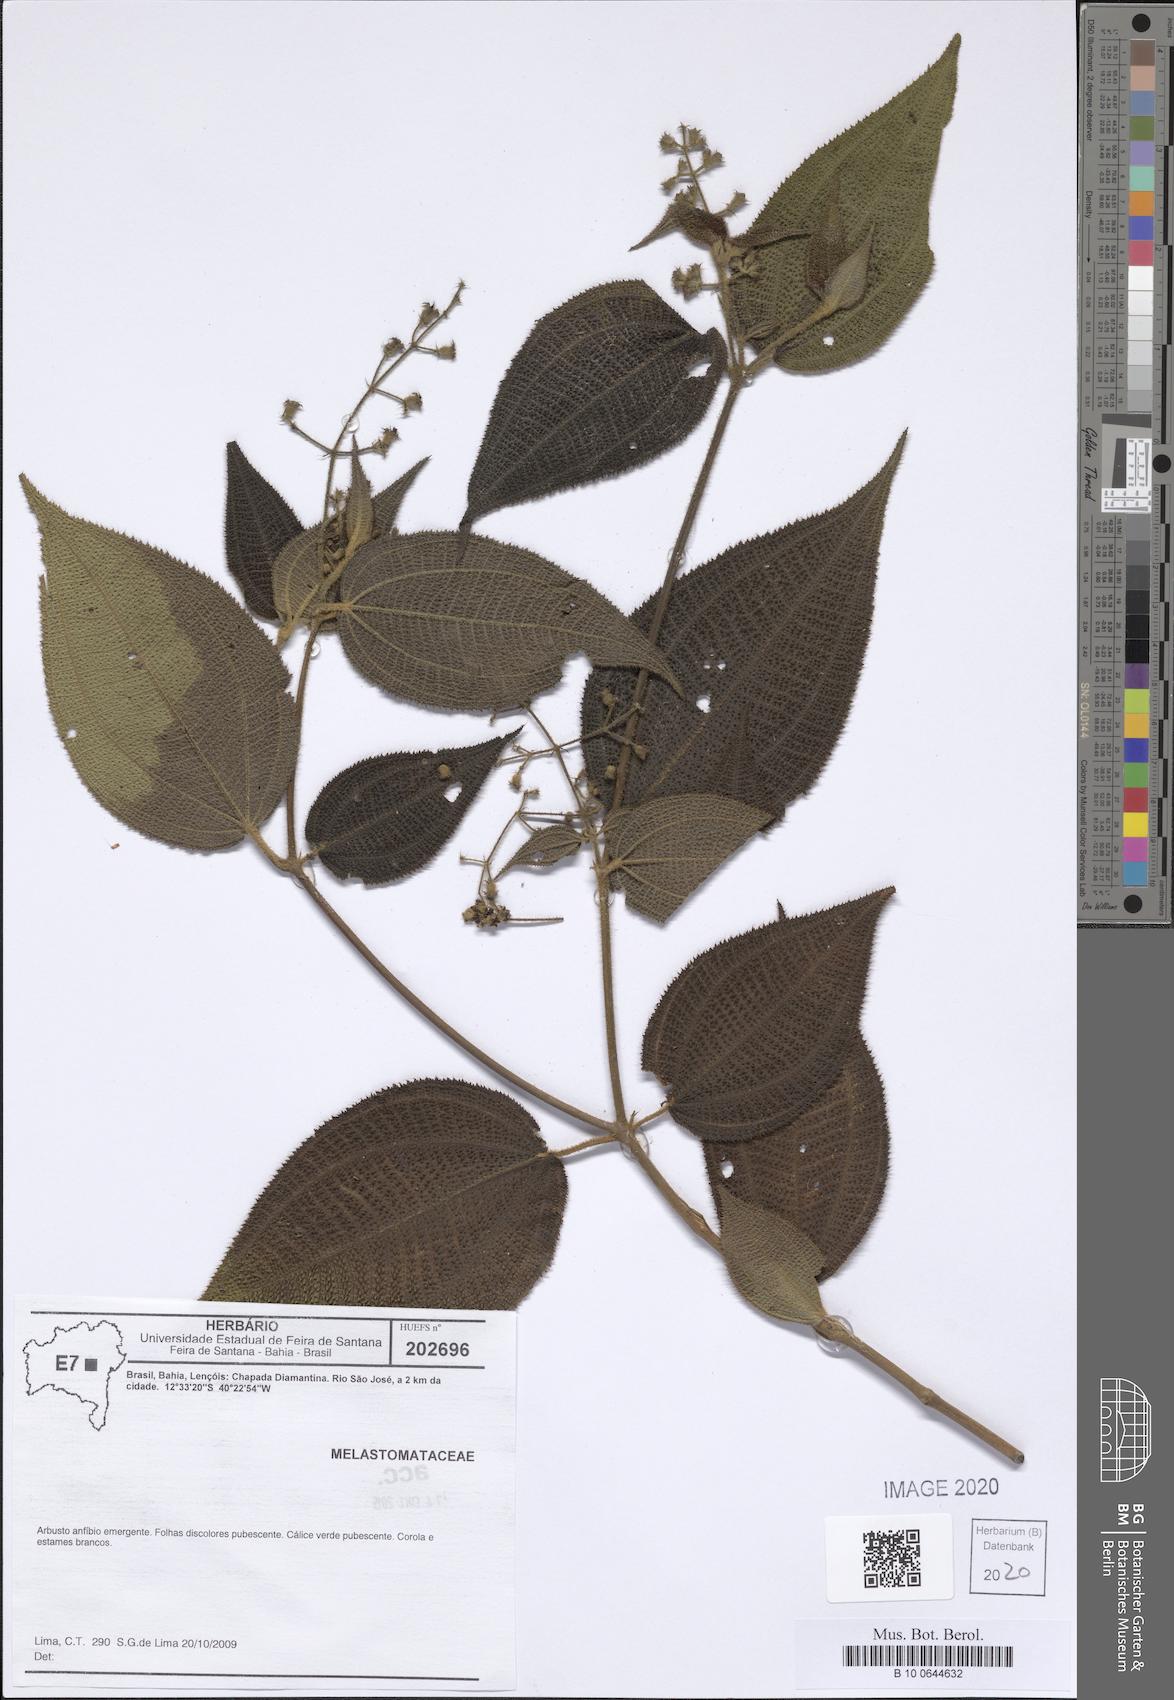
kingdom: Plantae
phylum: Tracheophyta
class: Magnoliopsida
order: Myrtales
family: Melastomataceae
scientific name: Melastomataceae
